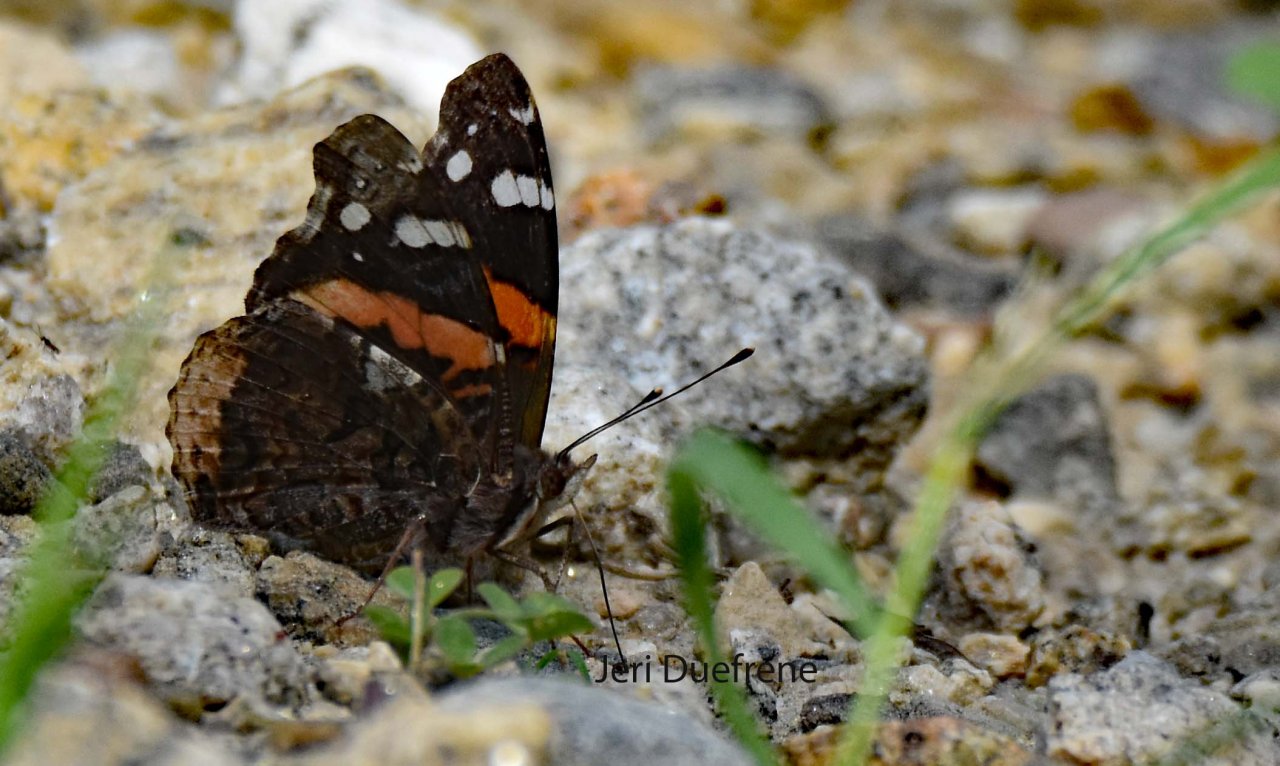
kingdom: Animalia
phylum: Arthropoda
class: Insecta
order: Lepidoptera
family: Nymphalidae
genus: Vanessa
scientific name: Vanessa atalanta
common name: Red Admiral
